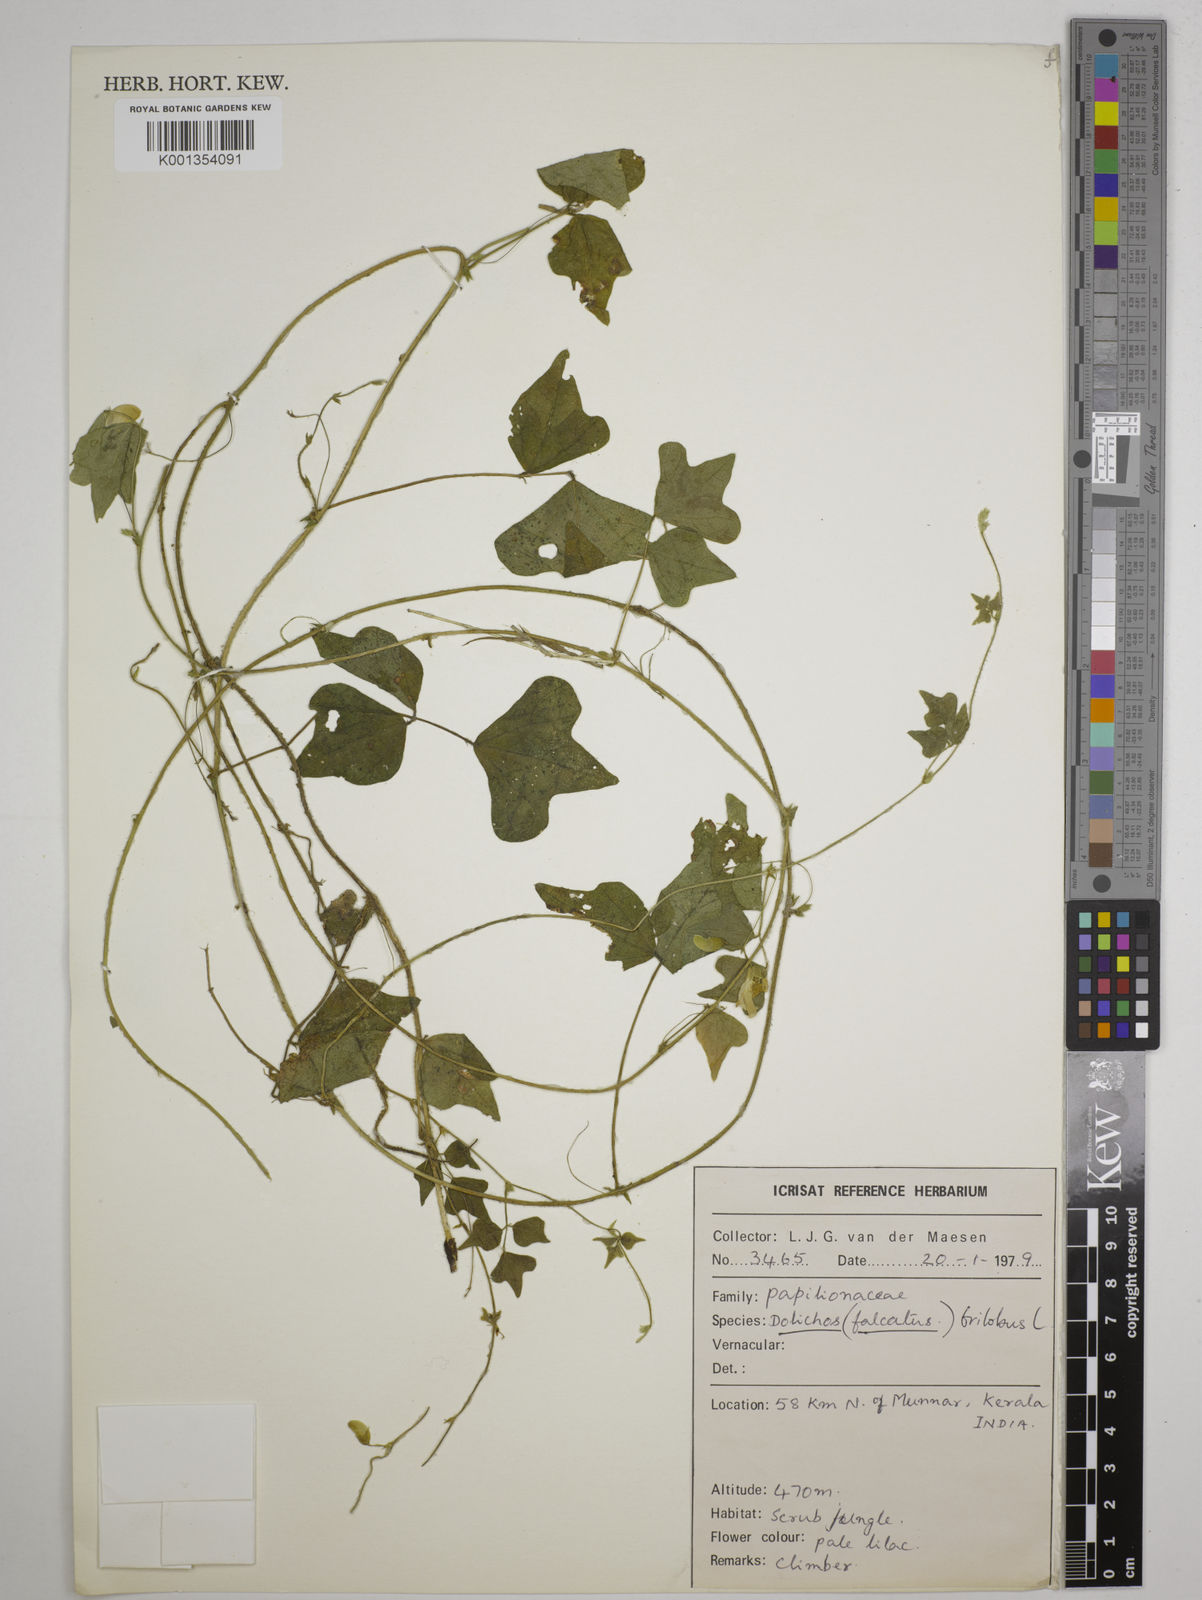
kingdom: Plantae
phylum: Tracheophyta
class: Magnoliopsida
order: Fabales
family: Fabaceae
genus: Dolichos
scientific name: Dolichos
